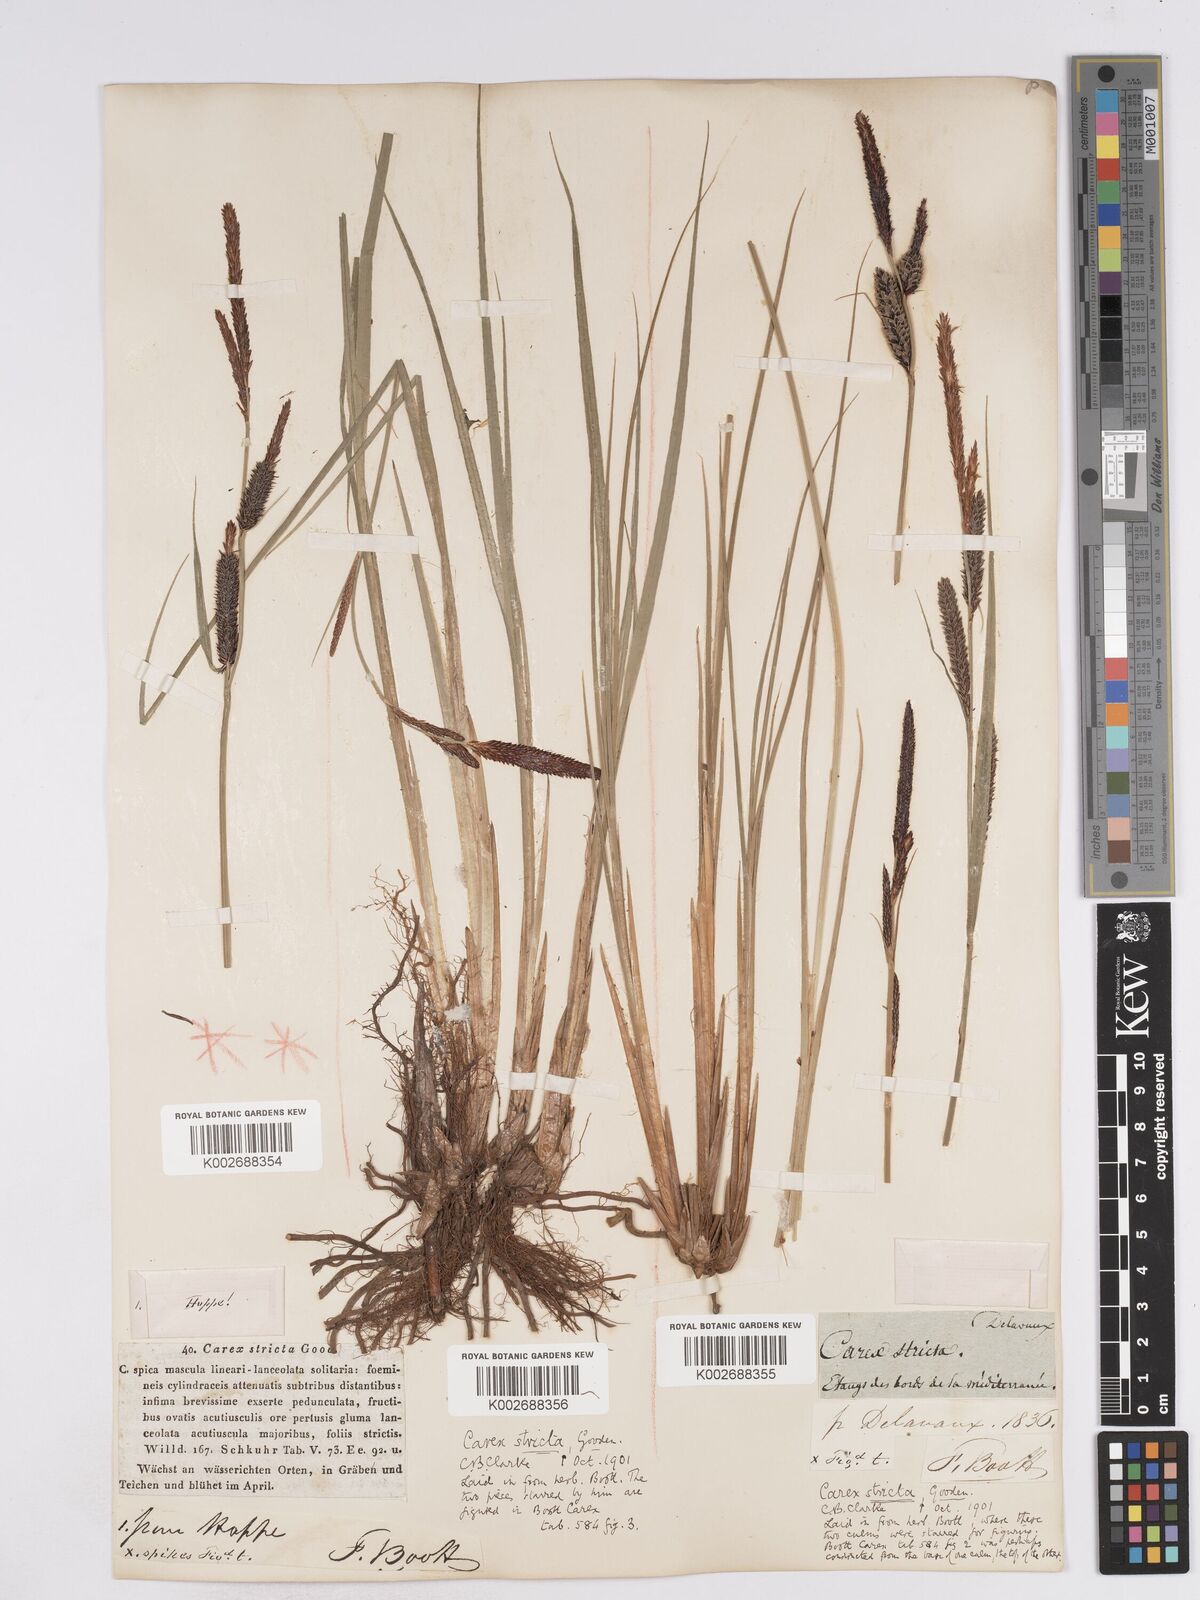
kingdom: Plantae
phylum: Tracheophyta
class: Liliopsida
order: Poales
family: Cyperaceae
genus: Carex
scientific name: Carex elata
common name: Tufted sedge
